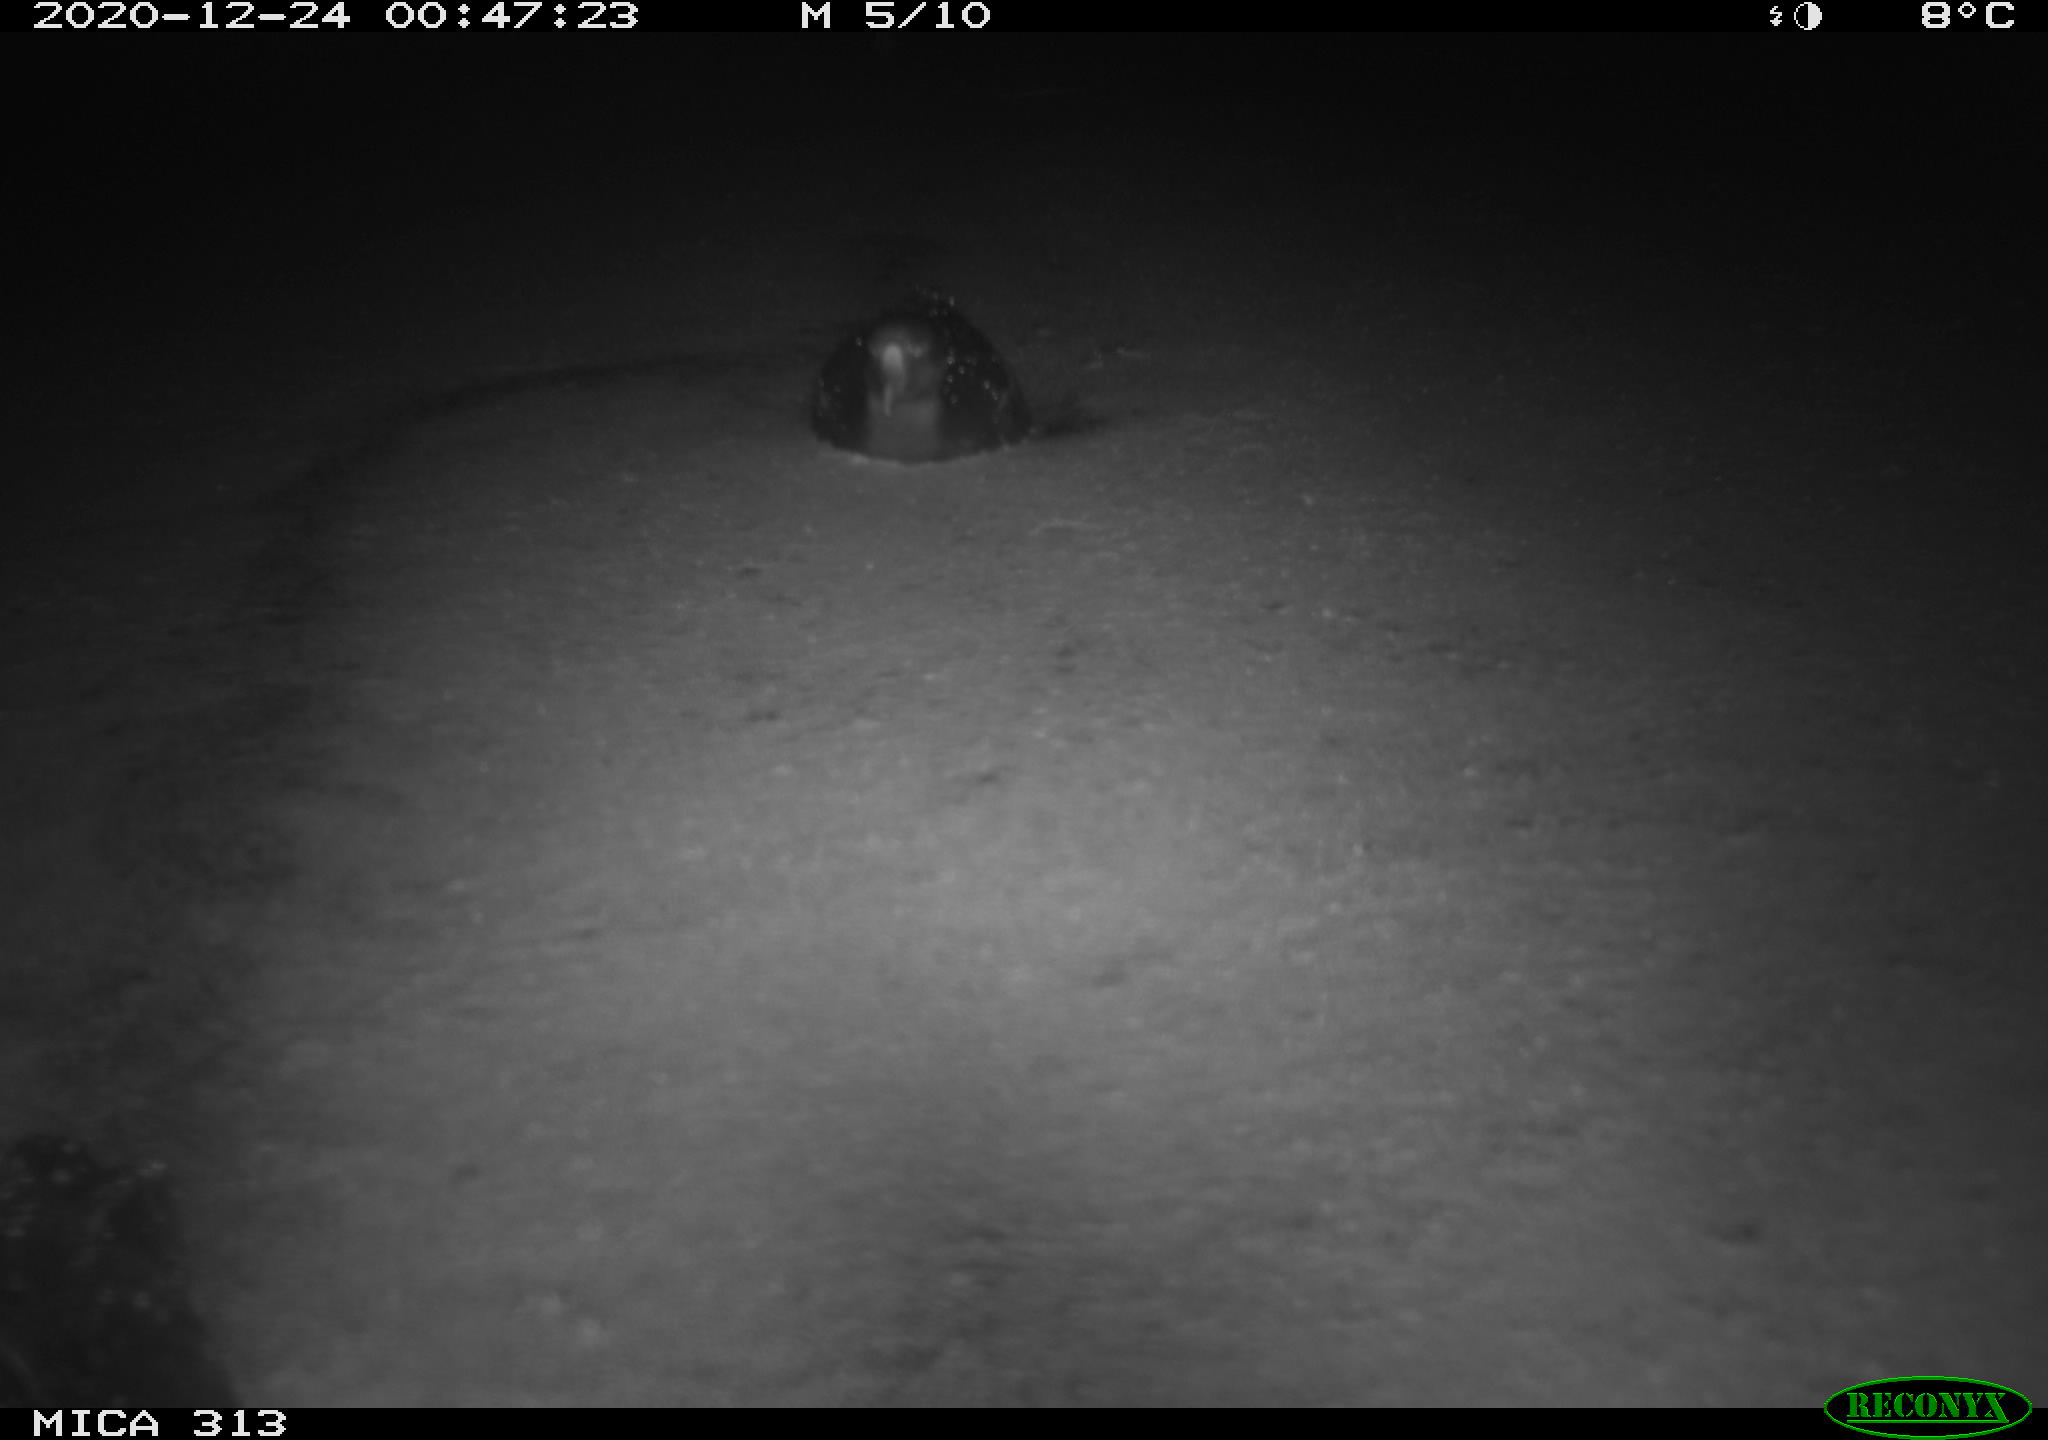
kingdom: Animalia
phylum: Chordata
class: Aves
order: Gruiformes
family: Rallidae
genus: Gallinula
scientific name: Gallinula chloropus
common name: Common moorhen
